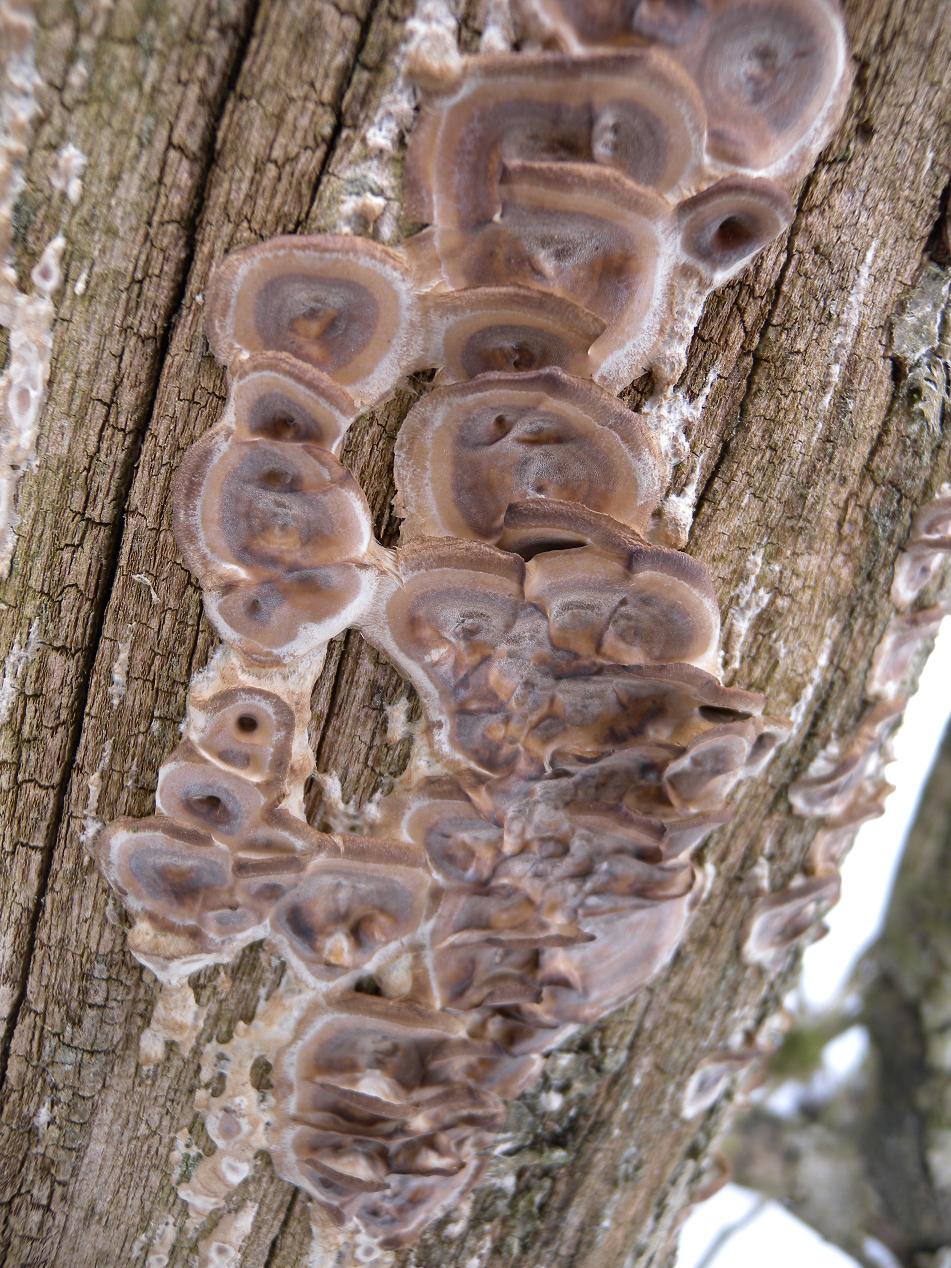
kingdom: Fungi
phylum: Basidiomycota
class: Agaricomycetes
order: Polyporales
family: Phanerochaetaceae
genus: Bjerkandera
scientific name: Bjerkandera adusta
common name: sveden sodporesvamp
